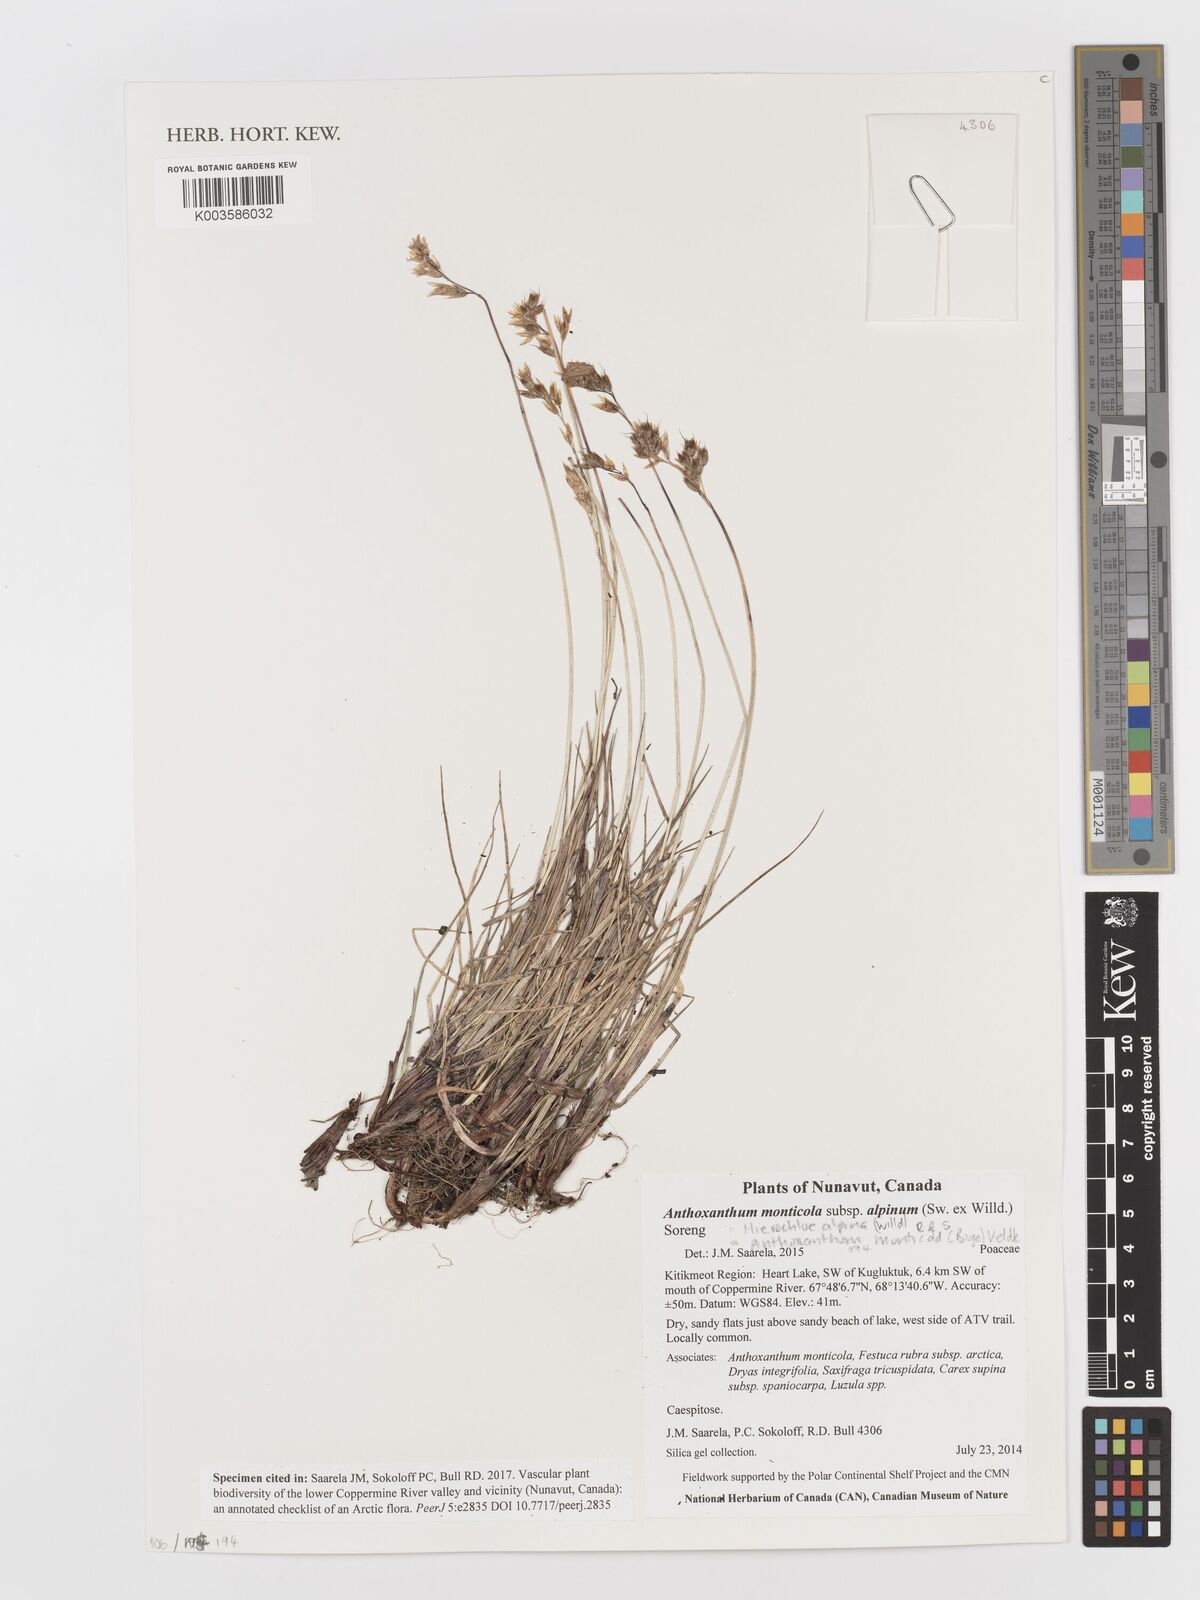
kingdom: Plantae
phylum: Tracheophyta
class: Liliopsida
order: Poales
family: Poaceae
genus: Anthoxanthum
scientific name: Anthoxanthum monticola
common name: Alpine sweetgrass
